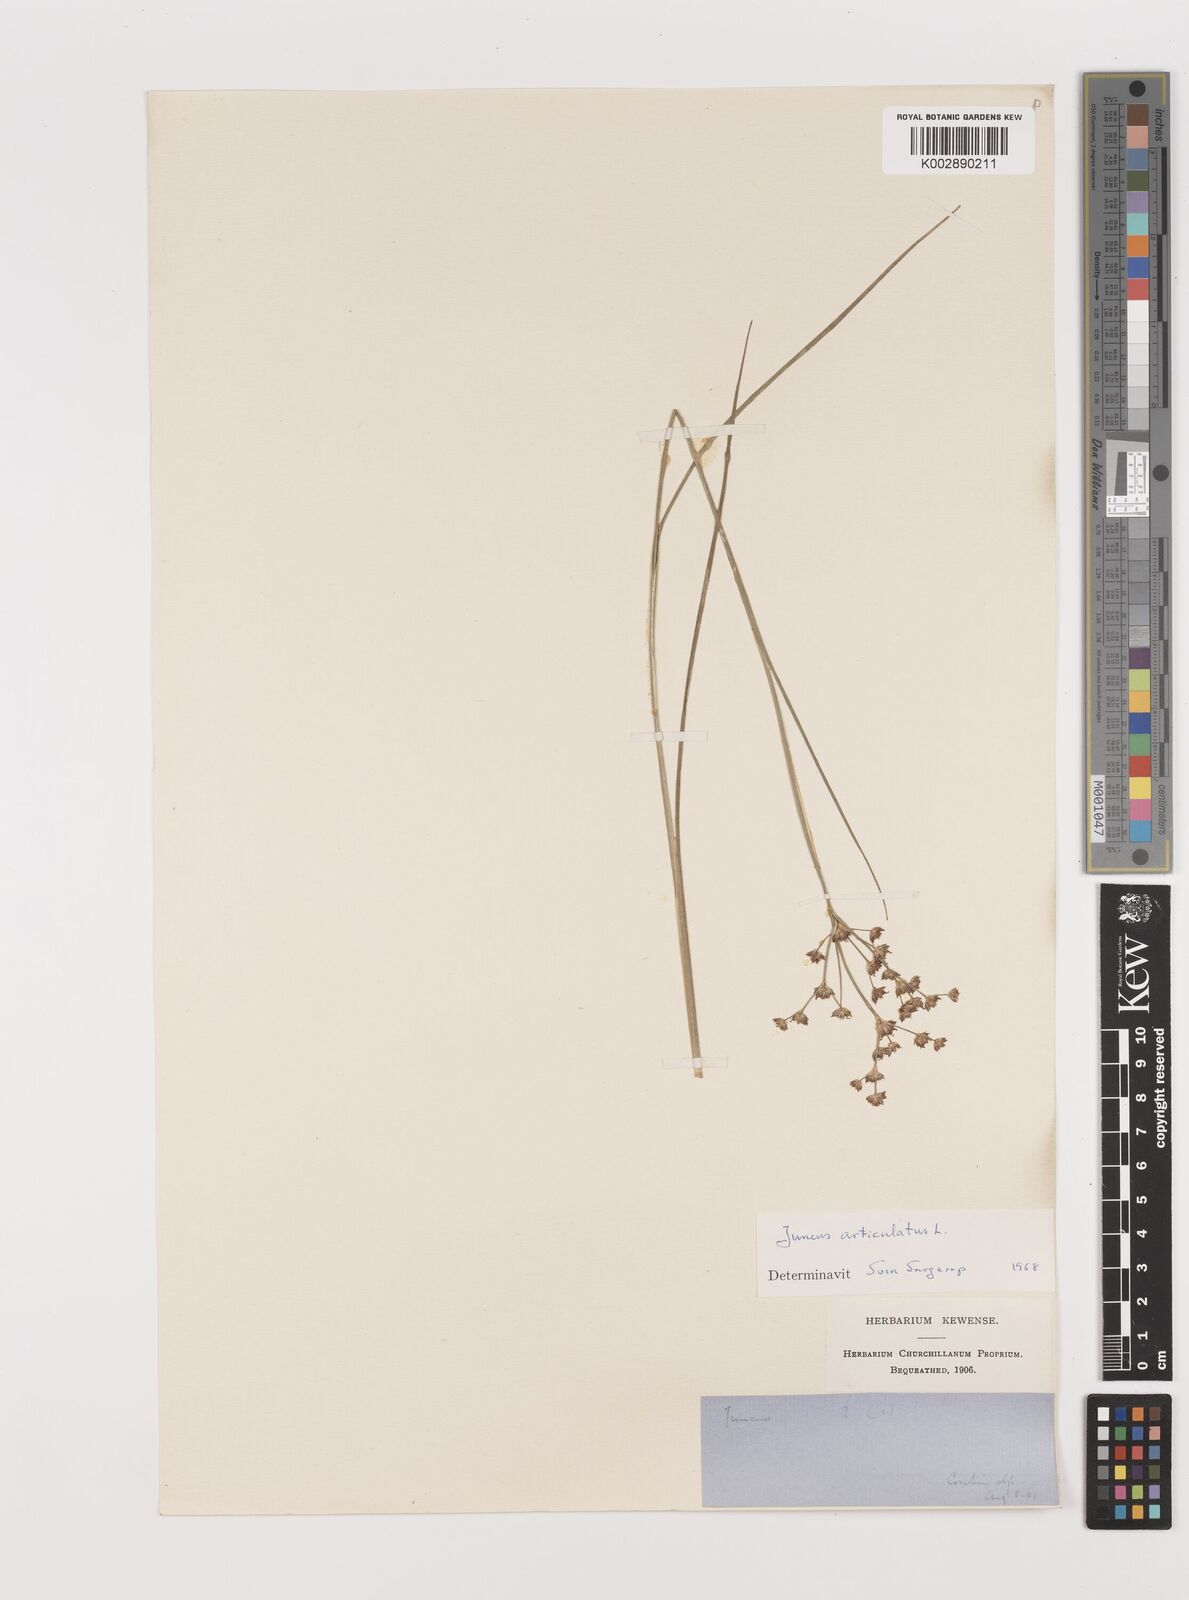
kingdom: Plantae
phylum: Tracheophyta
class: Liliopsida
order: Poales
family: Juncaceae
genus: Juncus
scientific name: Juncus articulatus
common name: Jointed rush
